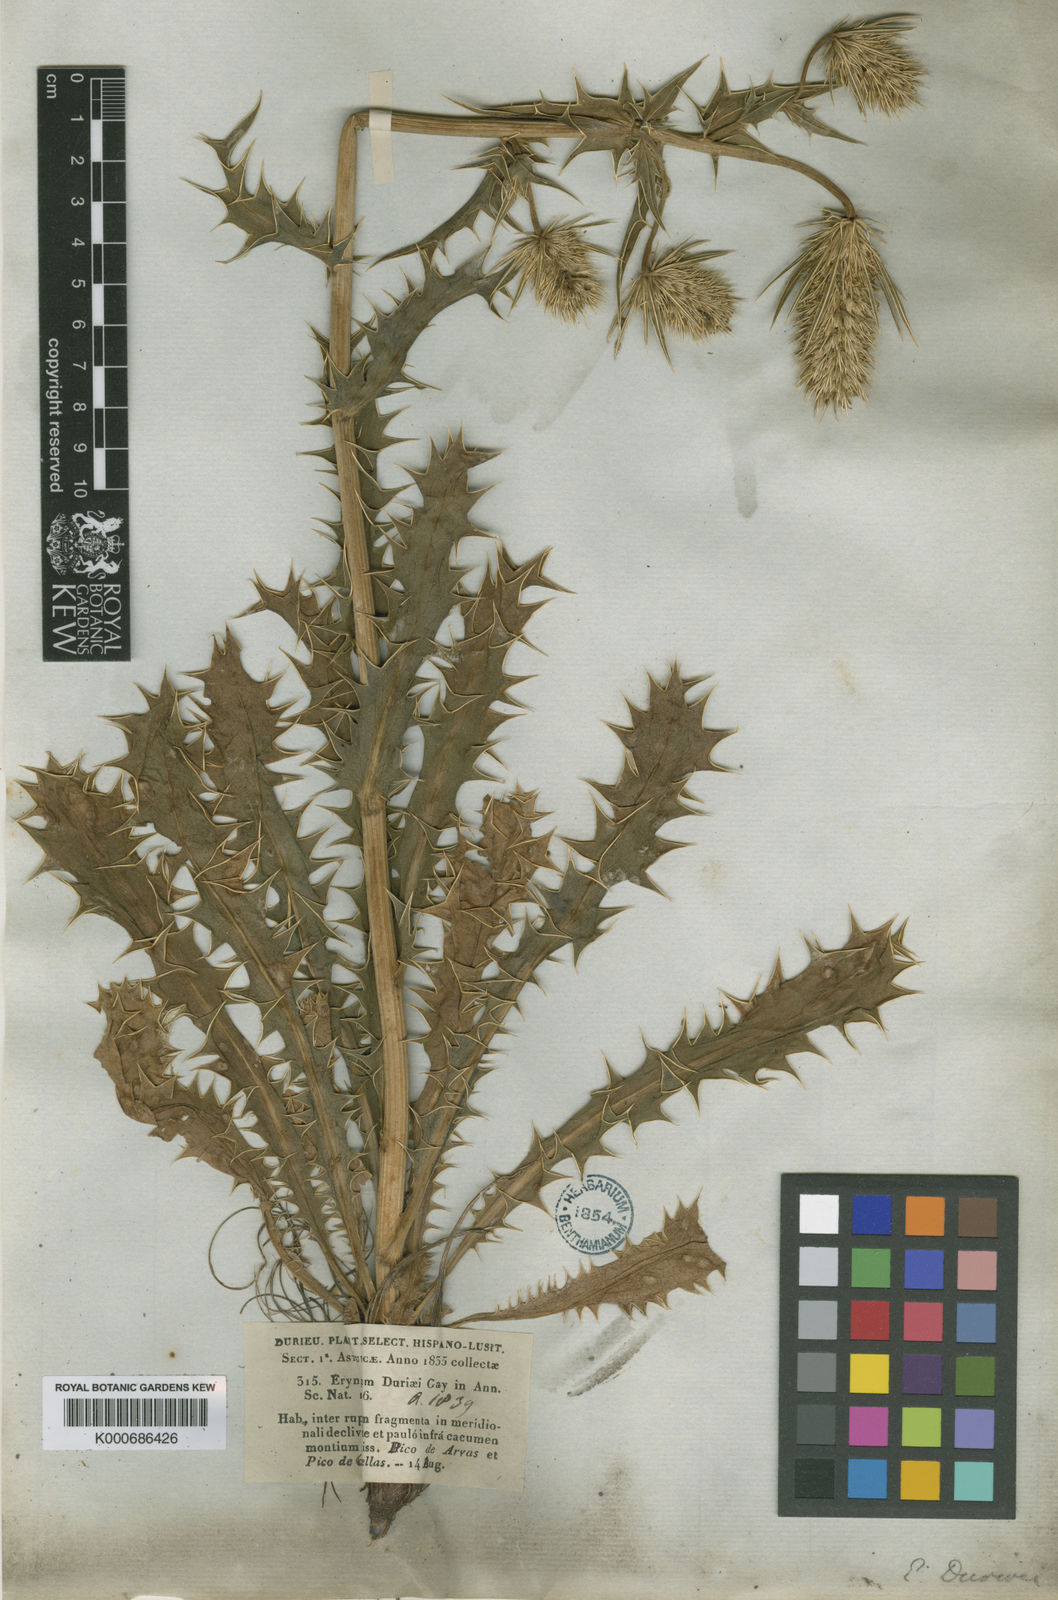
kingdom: Plantae
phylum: Tracheophyta
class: Magnoliopsida
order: Apiales
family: Apiaceae
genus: Eryngium
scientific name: Eryngium duriaei
